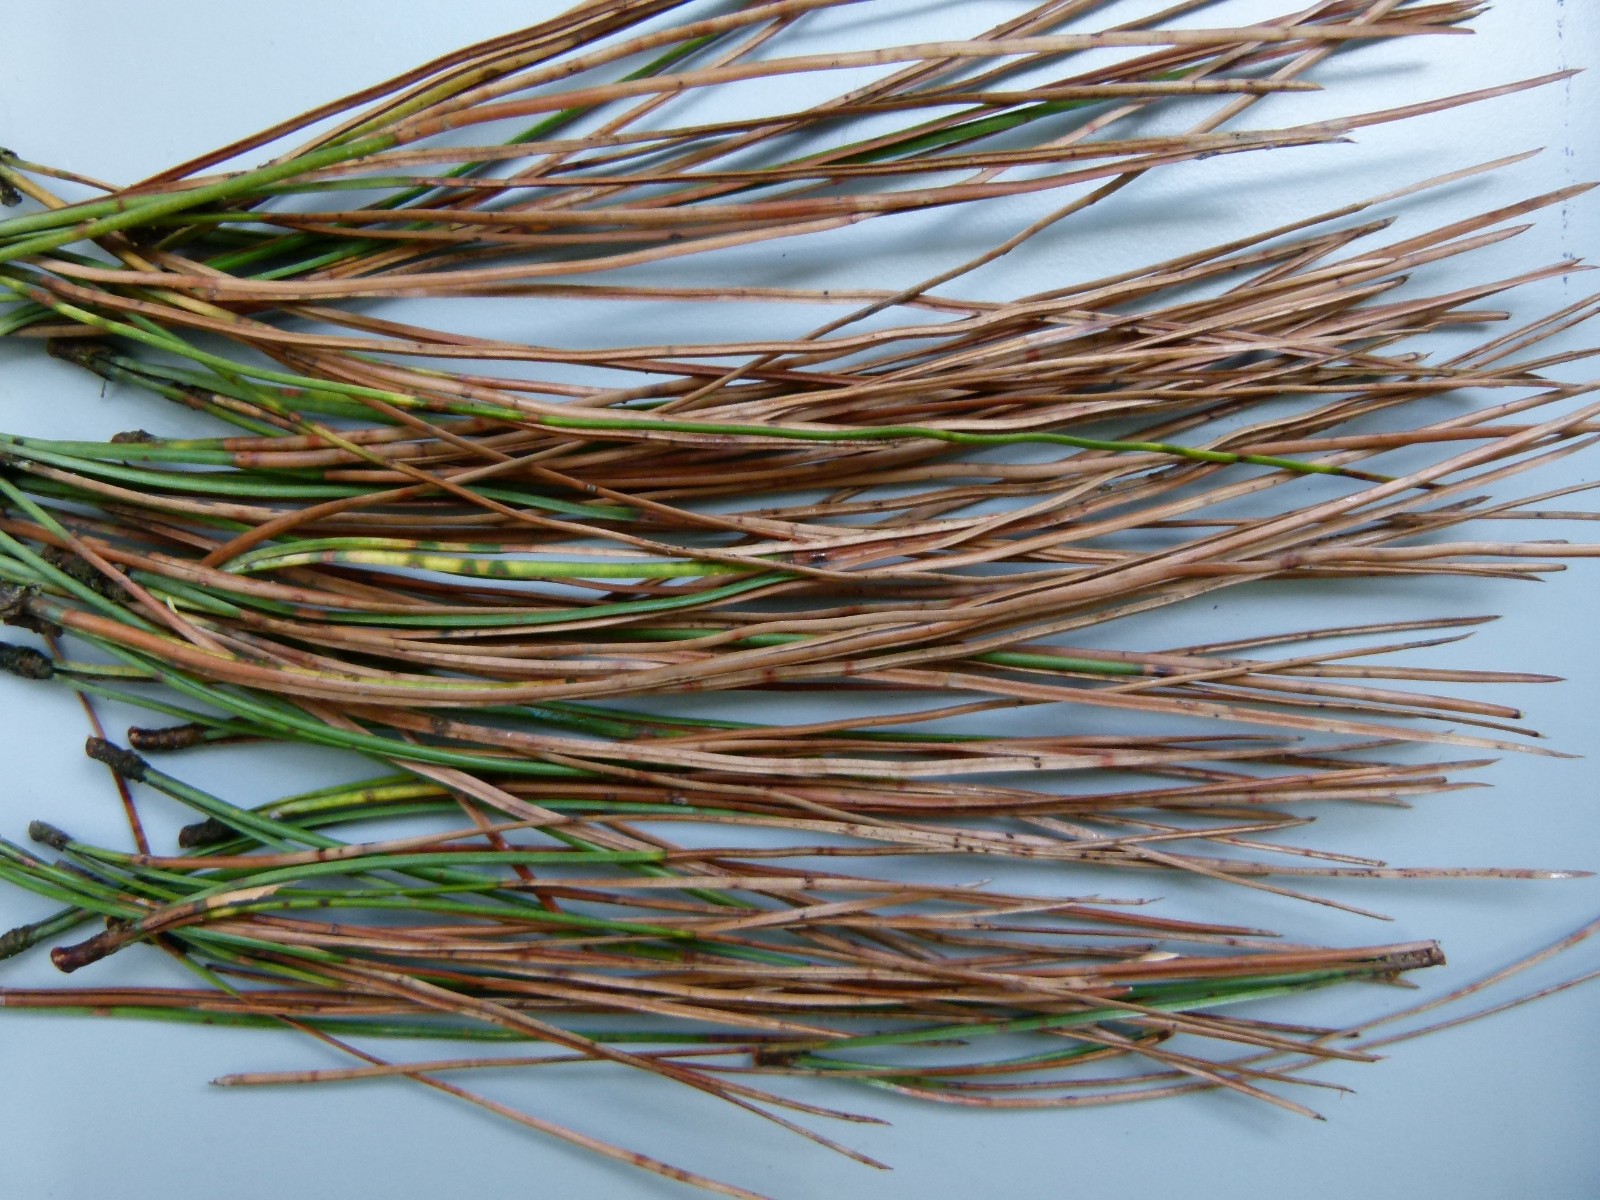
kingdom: Fungi
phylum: Ascomycota
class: Dothideomycetes
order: Mycosphaerellales
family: Mycosphaerellaceae
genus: Dothistroma
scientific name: Dothistroma septosporum
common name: Needle blight
